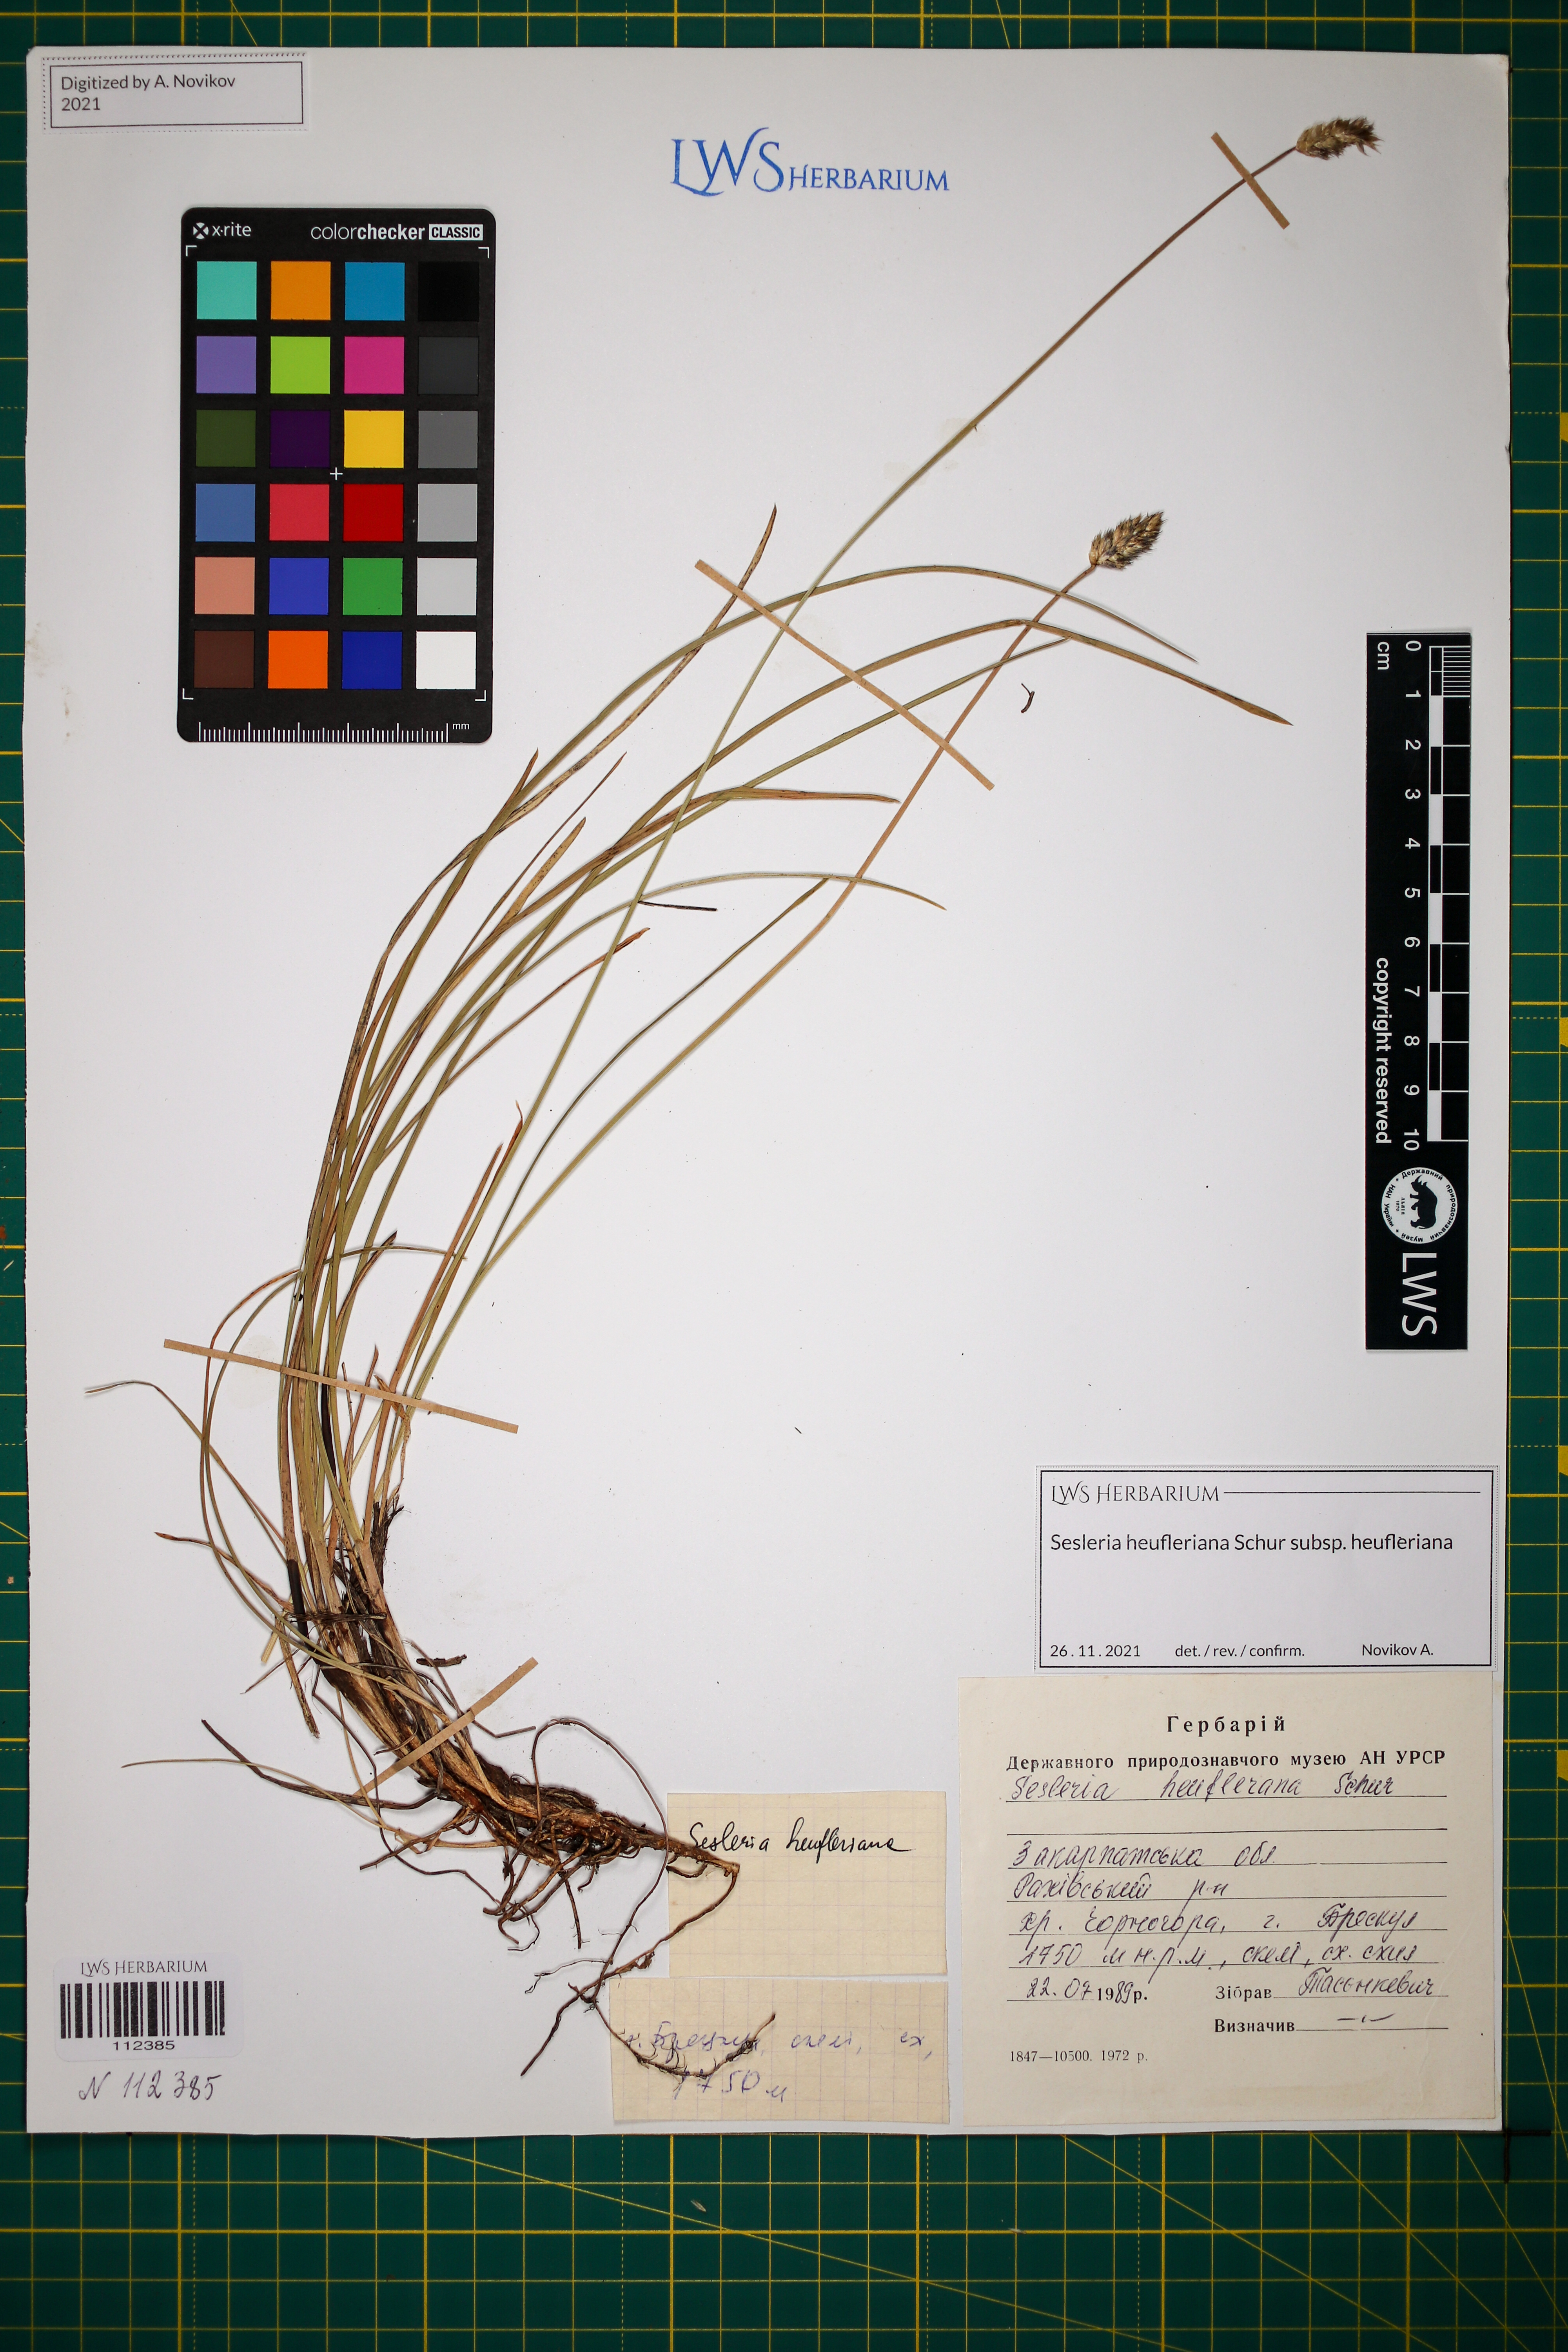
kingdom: Plantae
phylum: Tracheophyta
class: Liliopsida
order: Poales
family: Poaceae
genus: Sesleria
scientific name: Sesleria heufleriana
